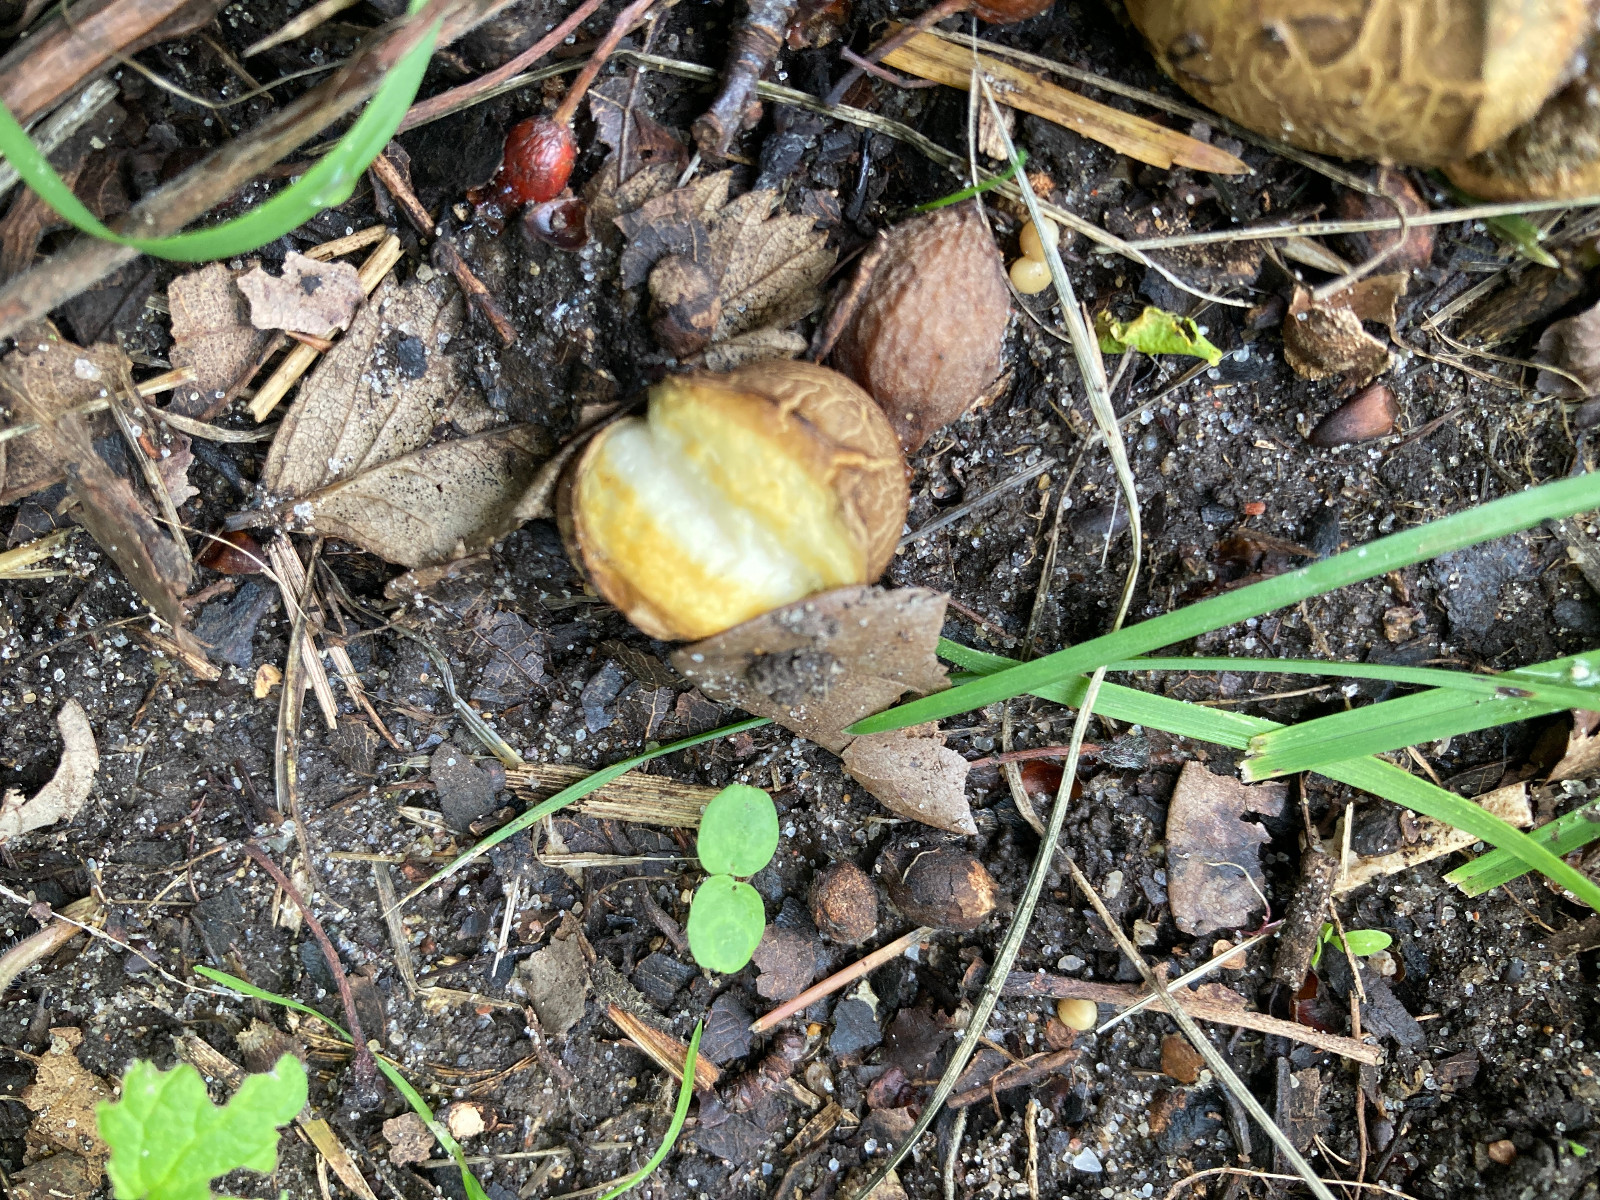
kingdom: Fungi
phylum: Basidiomycota
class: Agaricomycetes
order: Boletales
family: Sclerodermataceae
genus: Scleroderma
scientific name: Scleroderma
